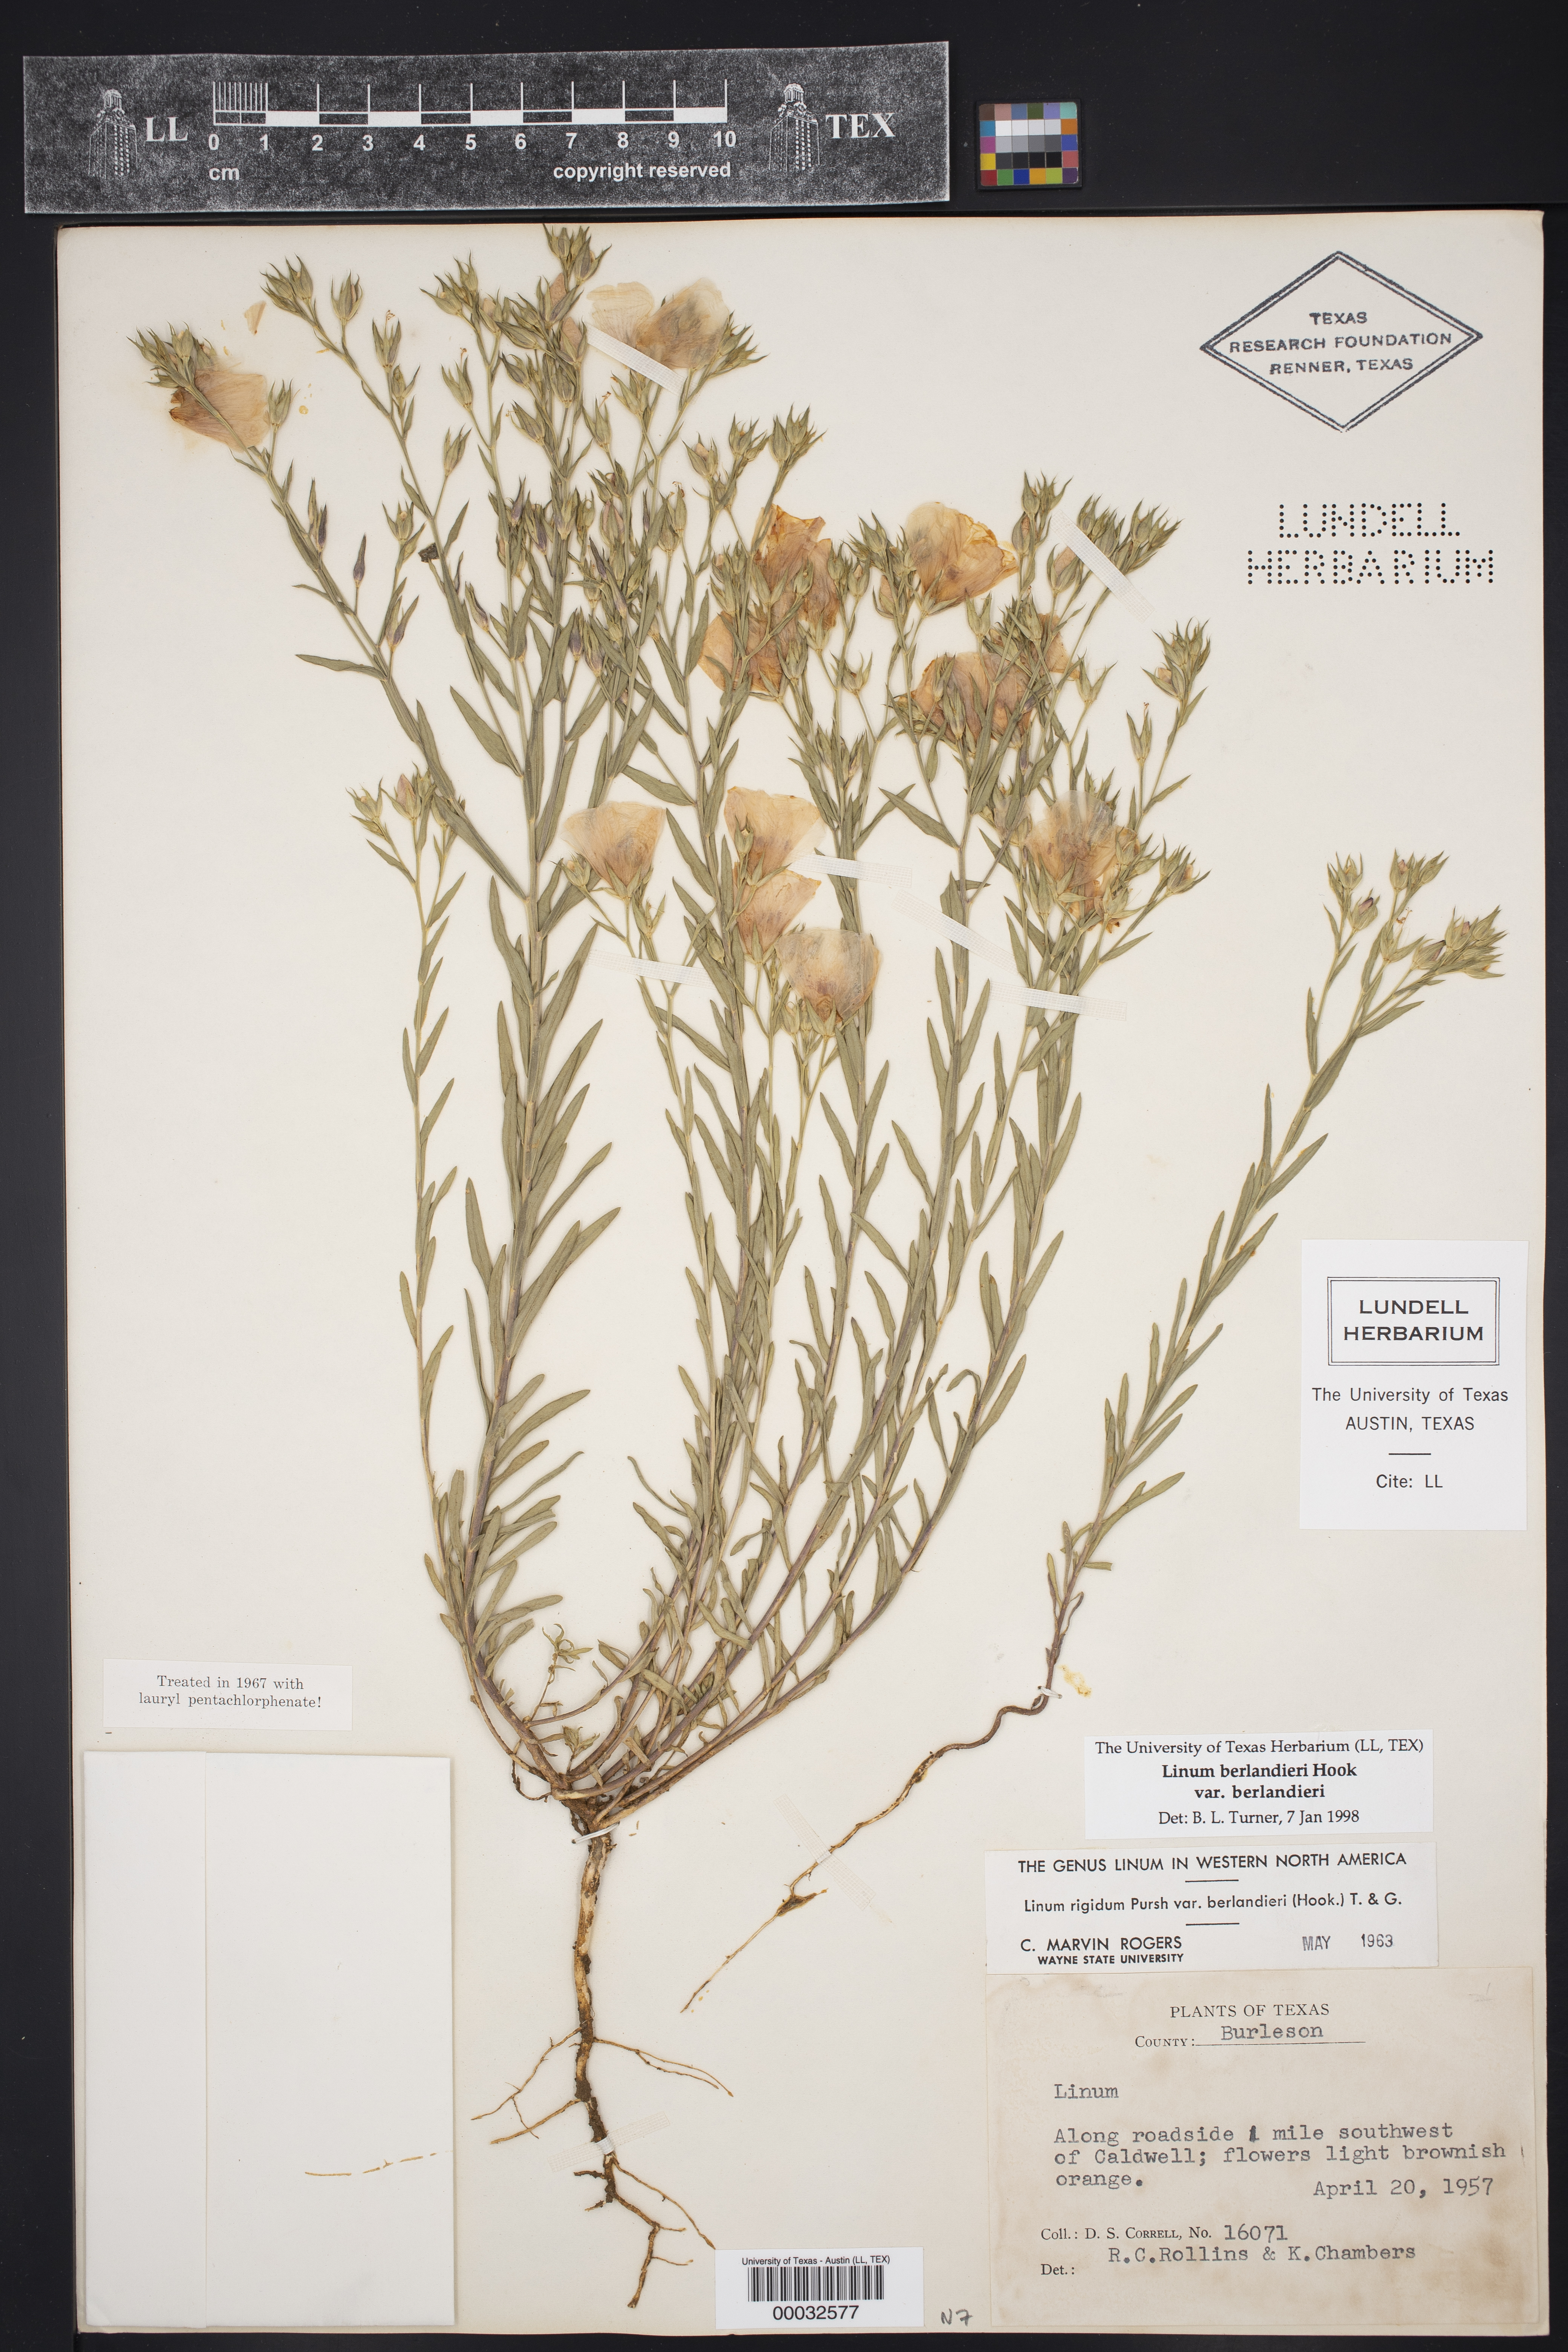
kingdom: Plantae
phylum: Tracheophyta
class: Magnoliopsida
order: Malpighiales
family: Linaceae
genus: Linum
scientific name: Linum berlandieri
